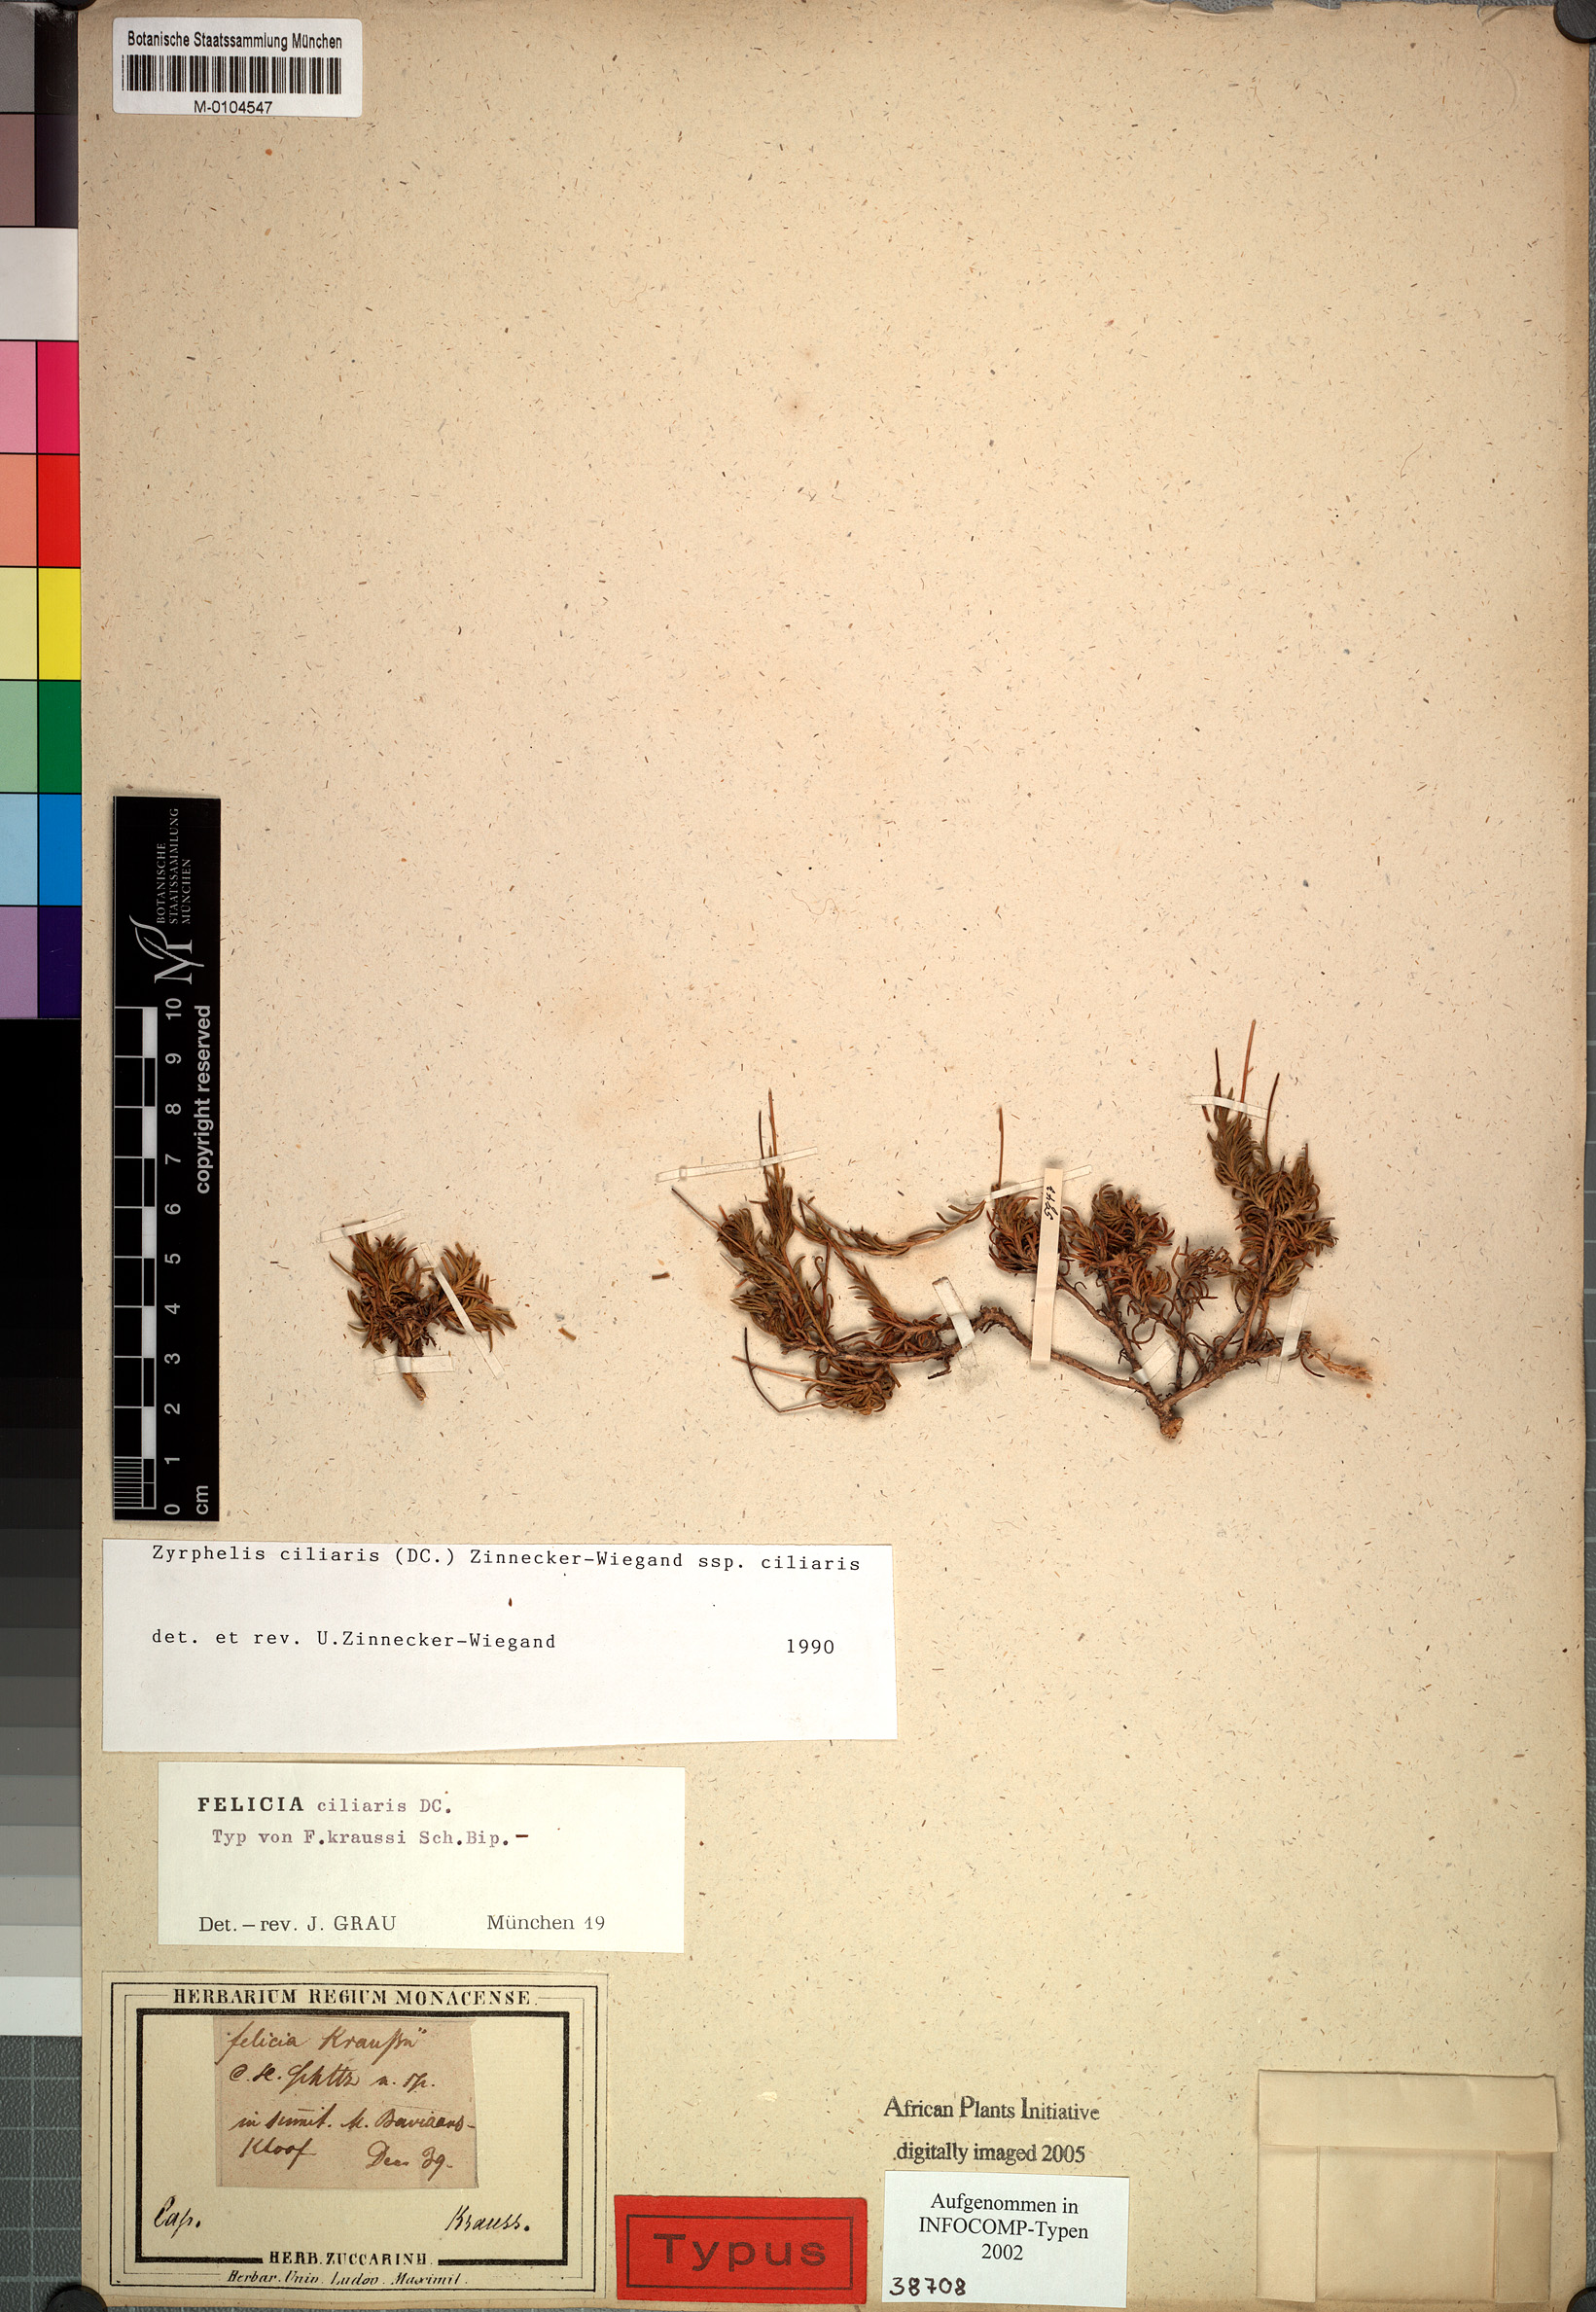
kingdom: Plantae
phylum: Tracheophyta
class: Magnoliopsida
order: Asterales
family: Asteraceae
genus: Zyrphelis
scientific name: Zyrphelis ciliaris
